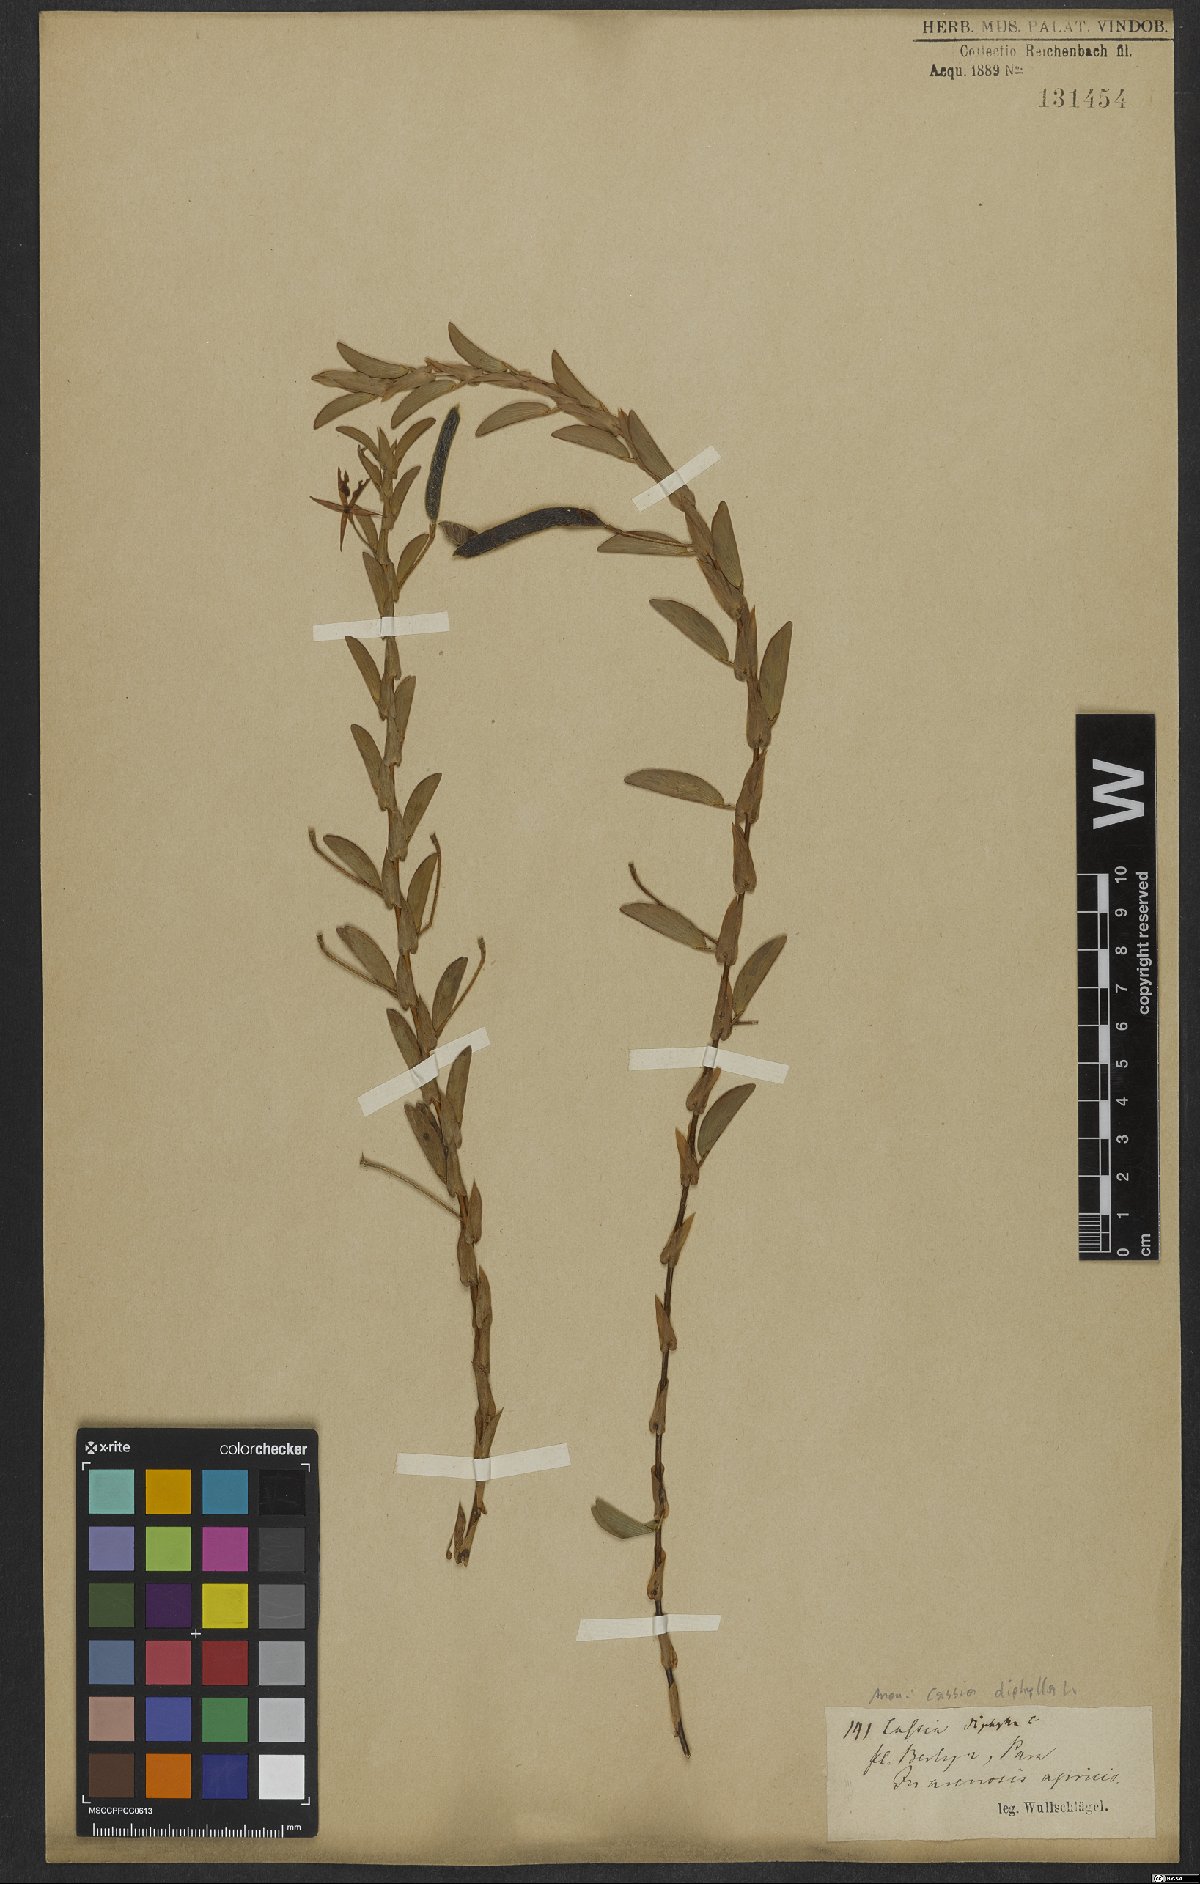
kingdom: Plantae
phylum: Tracheophyta
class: Magnoliopsida
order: Fabales
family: Fabaceae
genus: Chamaecrista
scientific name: Chamaecrista diphylla
